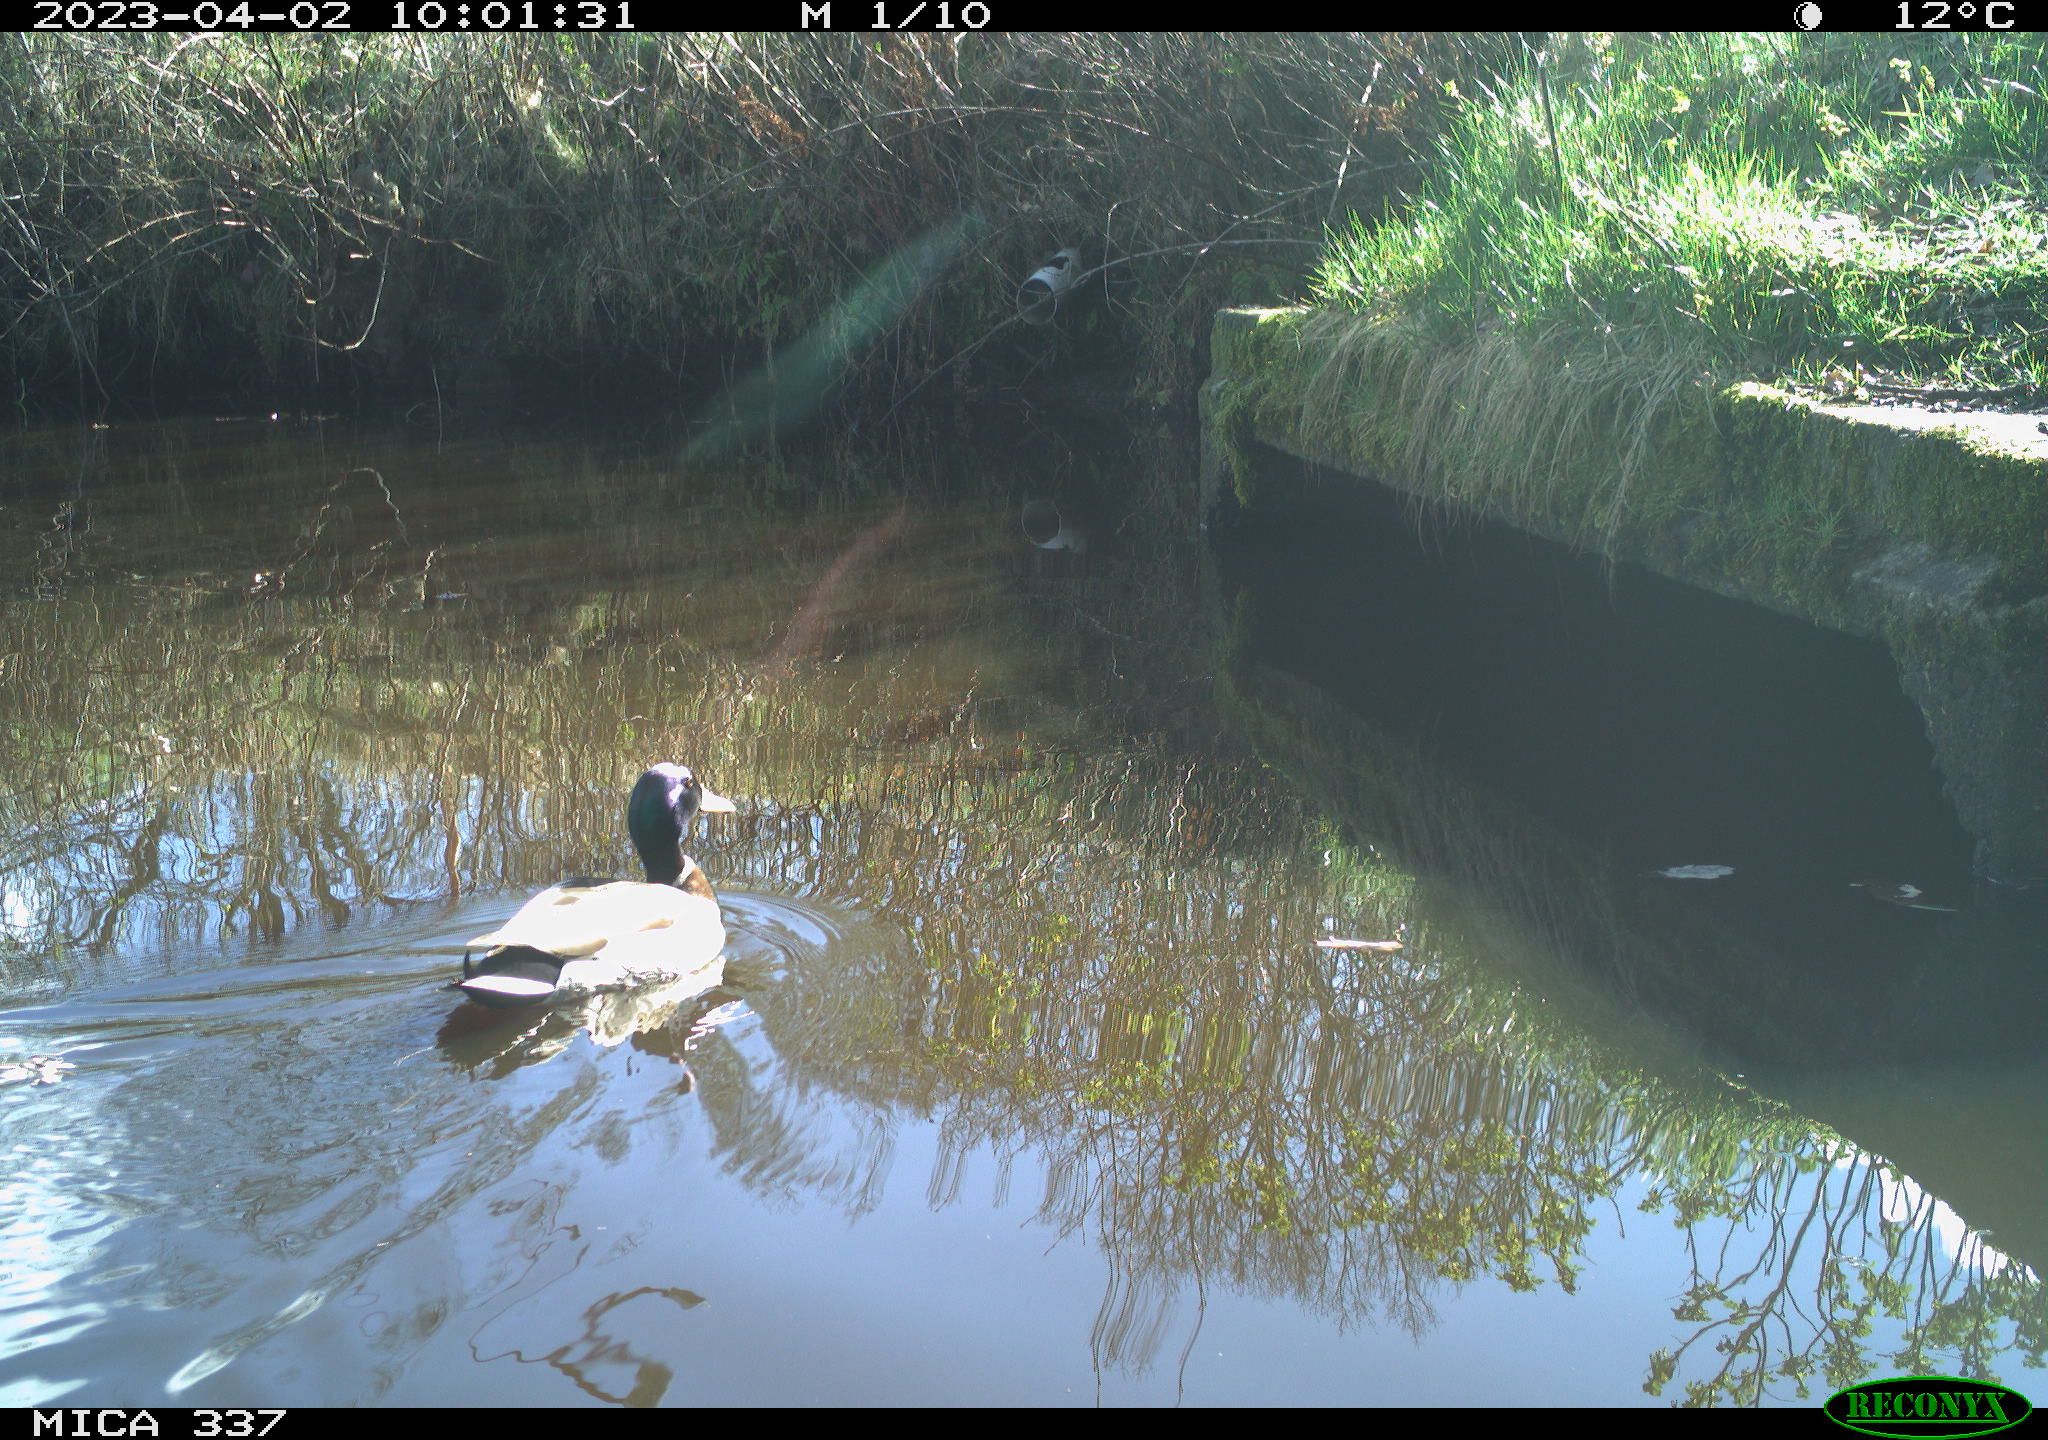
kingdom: Animalia
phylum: Chordata
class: Aves
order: Anseriformes
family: Anatidae
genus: Anas
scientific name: Anas
